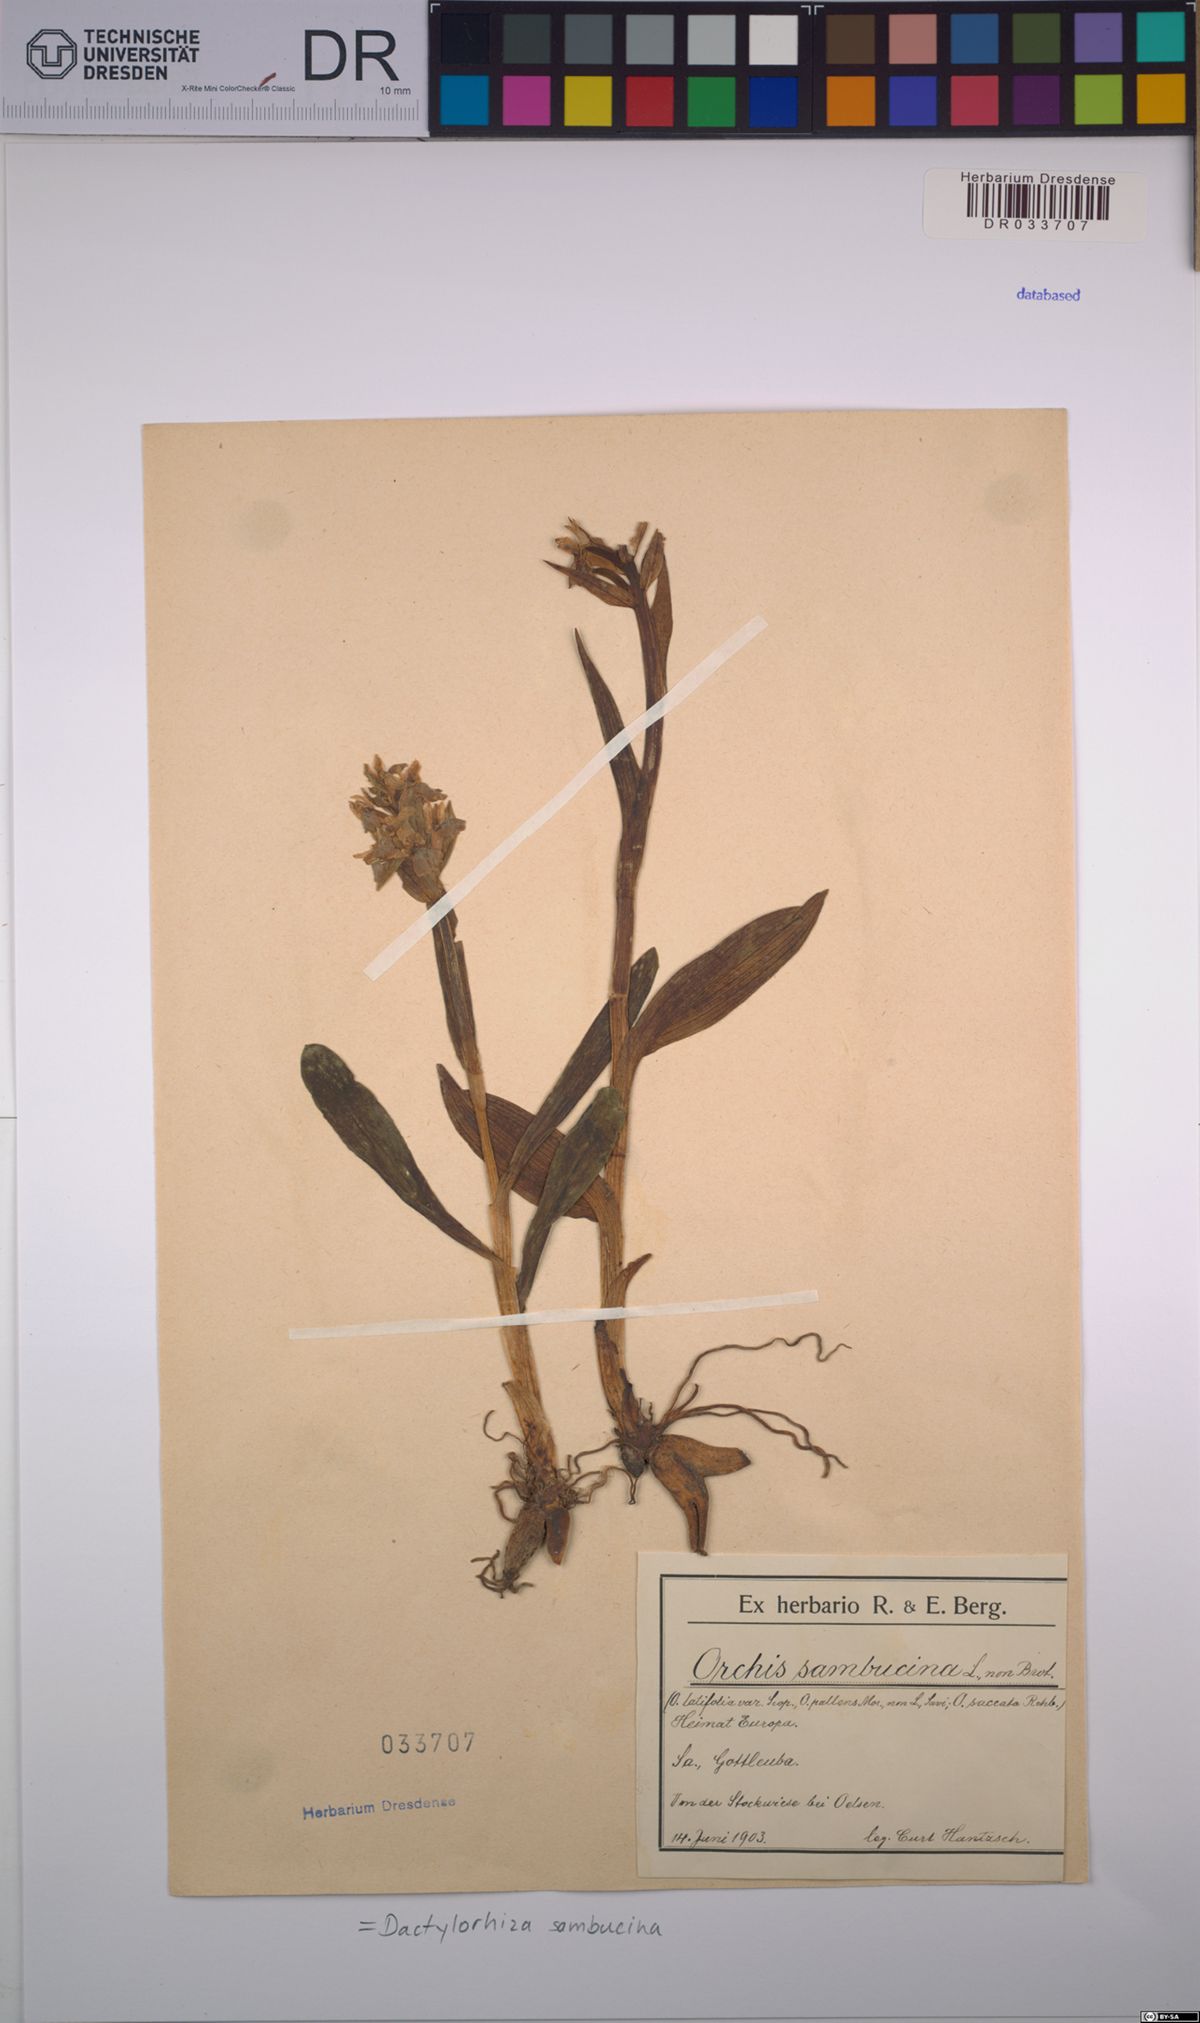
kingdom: Plantae
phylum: Tracheophyta
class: Liliopsida
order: Asparagales
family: Orchidaceae
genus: Dactylorhiza
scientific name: Dactylorhiza sambucina
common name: Elder-flowered orchid
